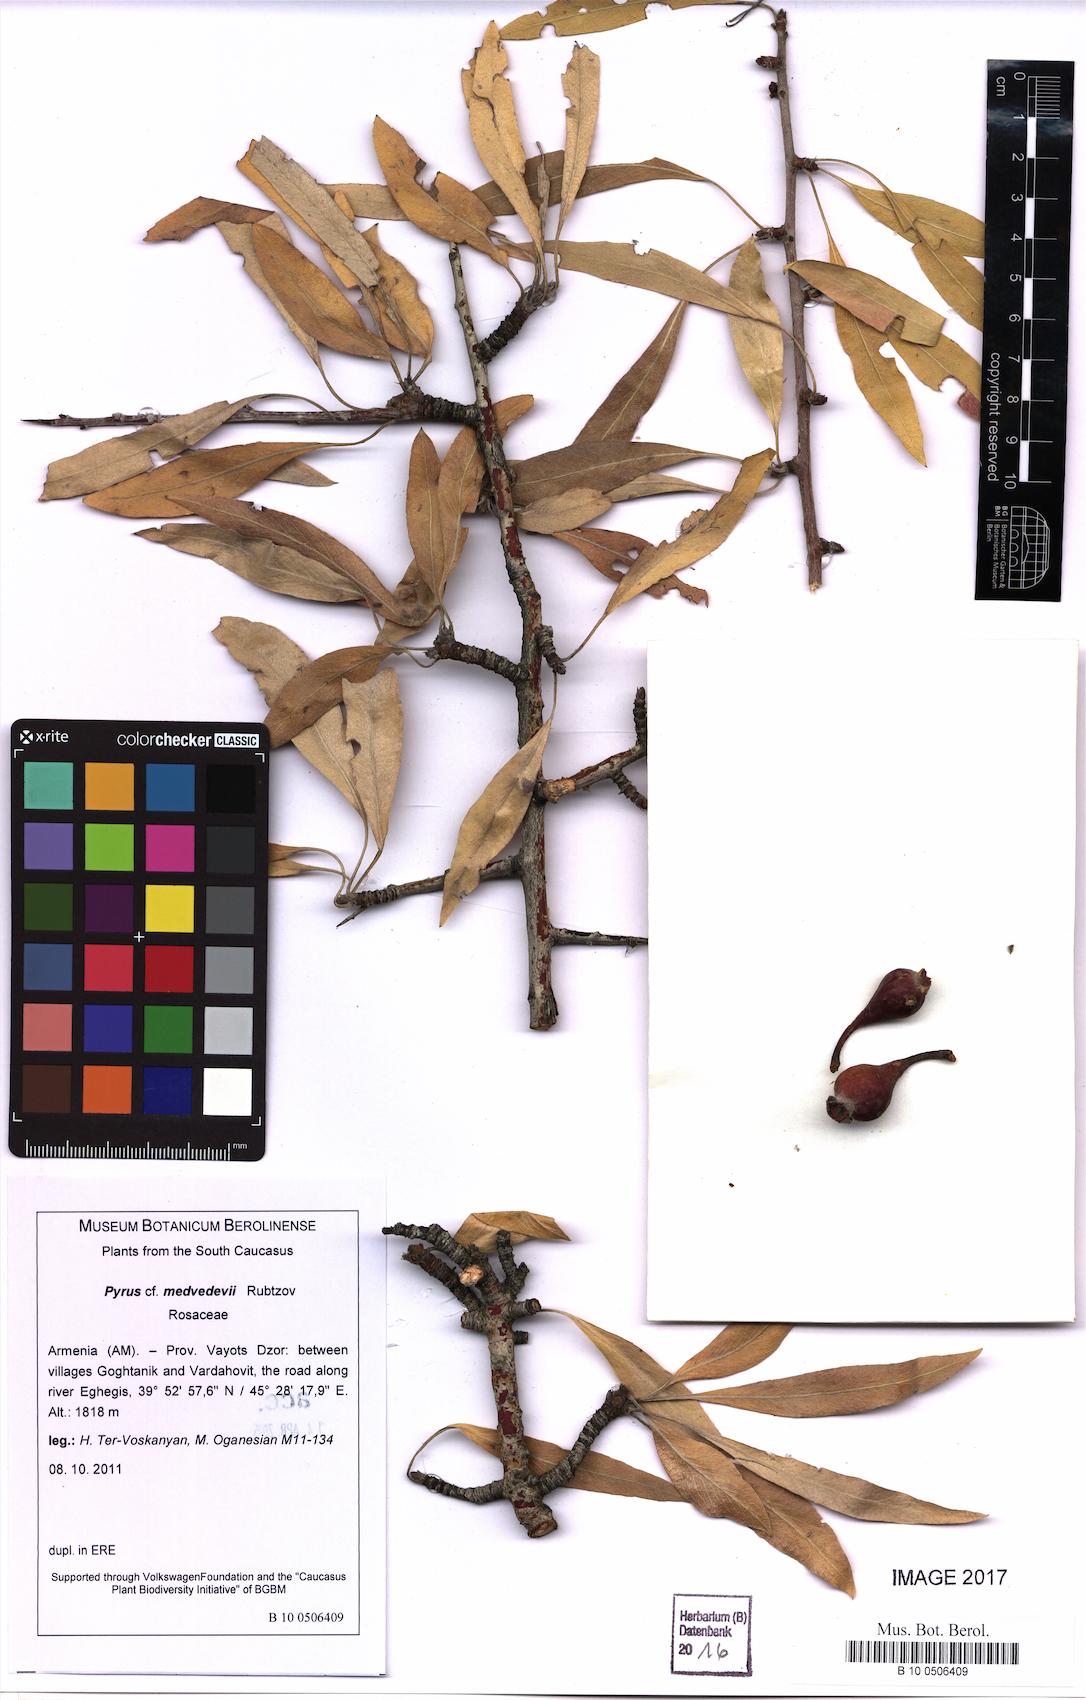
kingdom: Plantae
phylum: Tracheophyta
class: Magnoliopsida
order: Rosales
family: Rosaceae
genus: Pyrus
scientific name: Pyrus medvedevii
